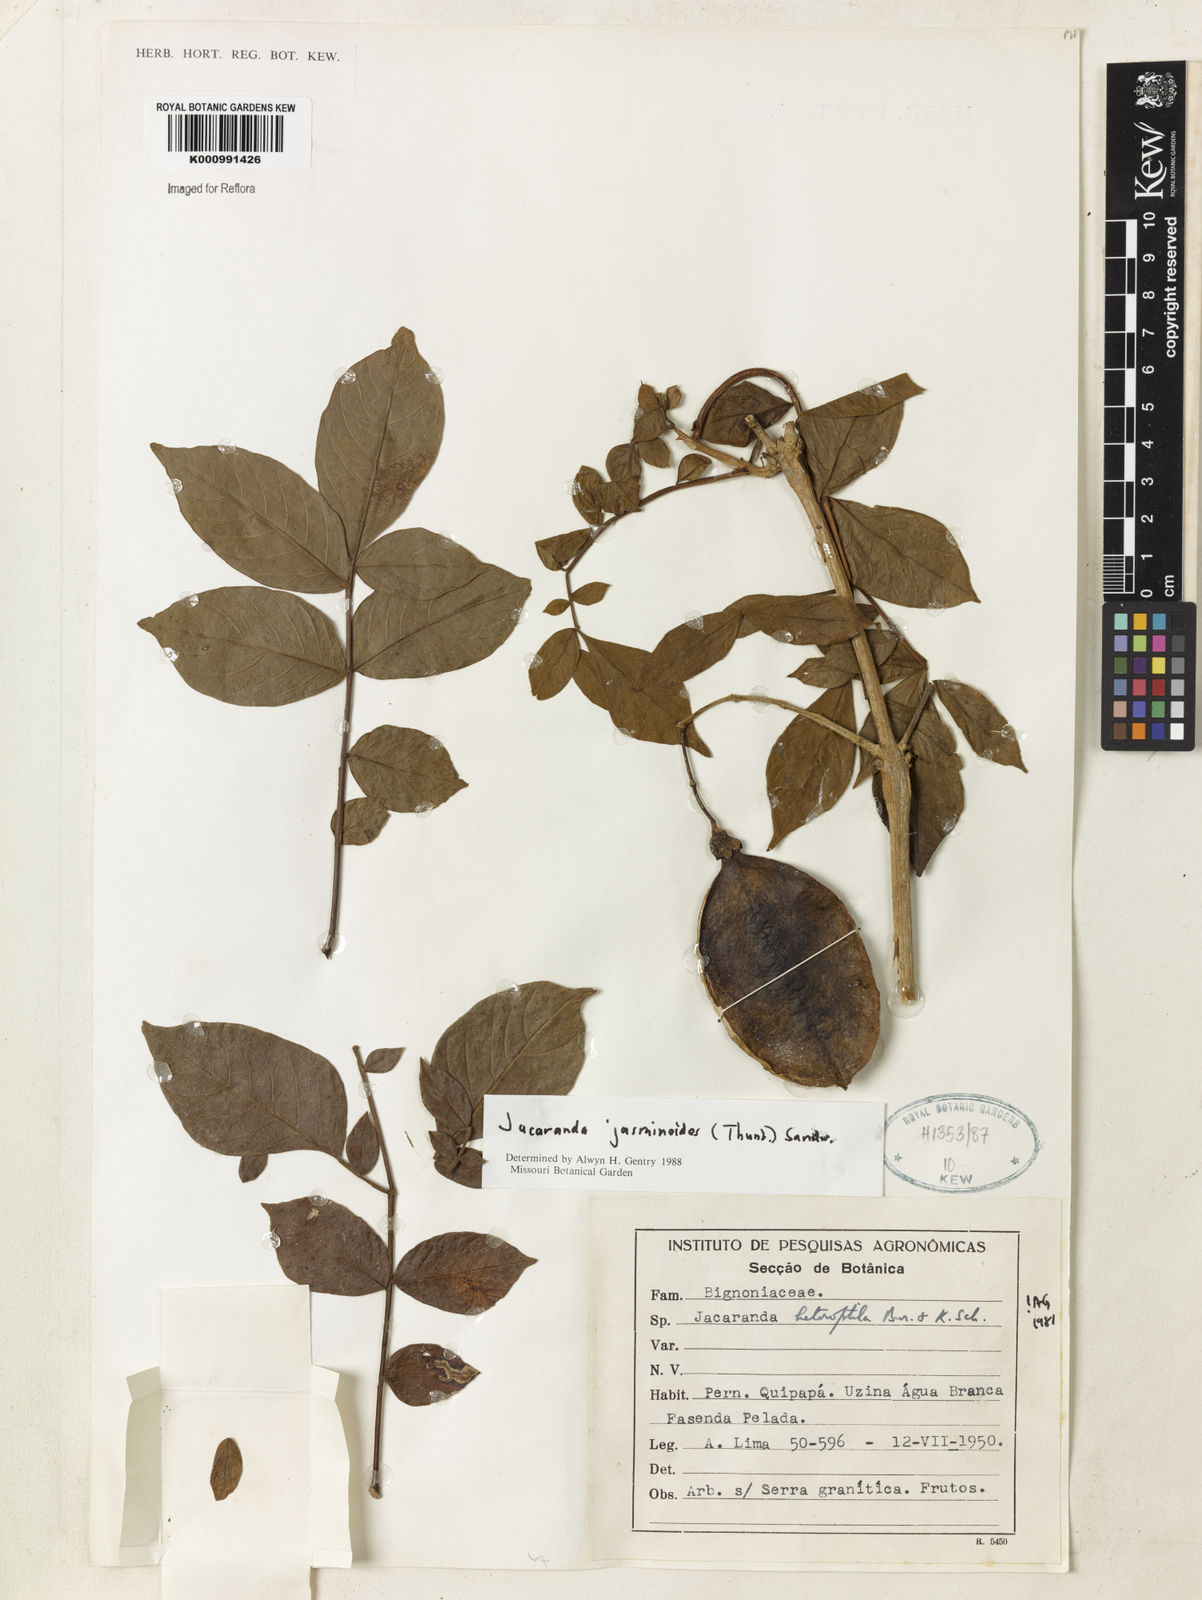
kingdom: Plantae
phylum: Tracheophyta
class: Magnoliopsida
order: Lamiales
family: Bignoniaceae
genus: Jacaranda
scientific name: Jacaranda jasminoides
